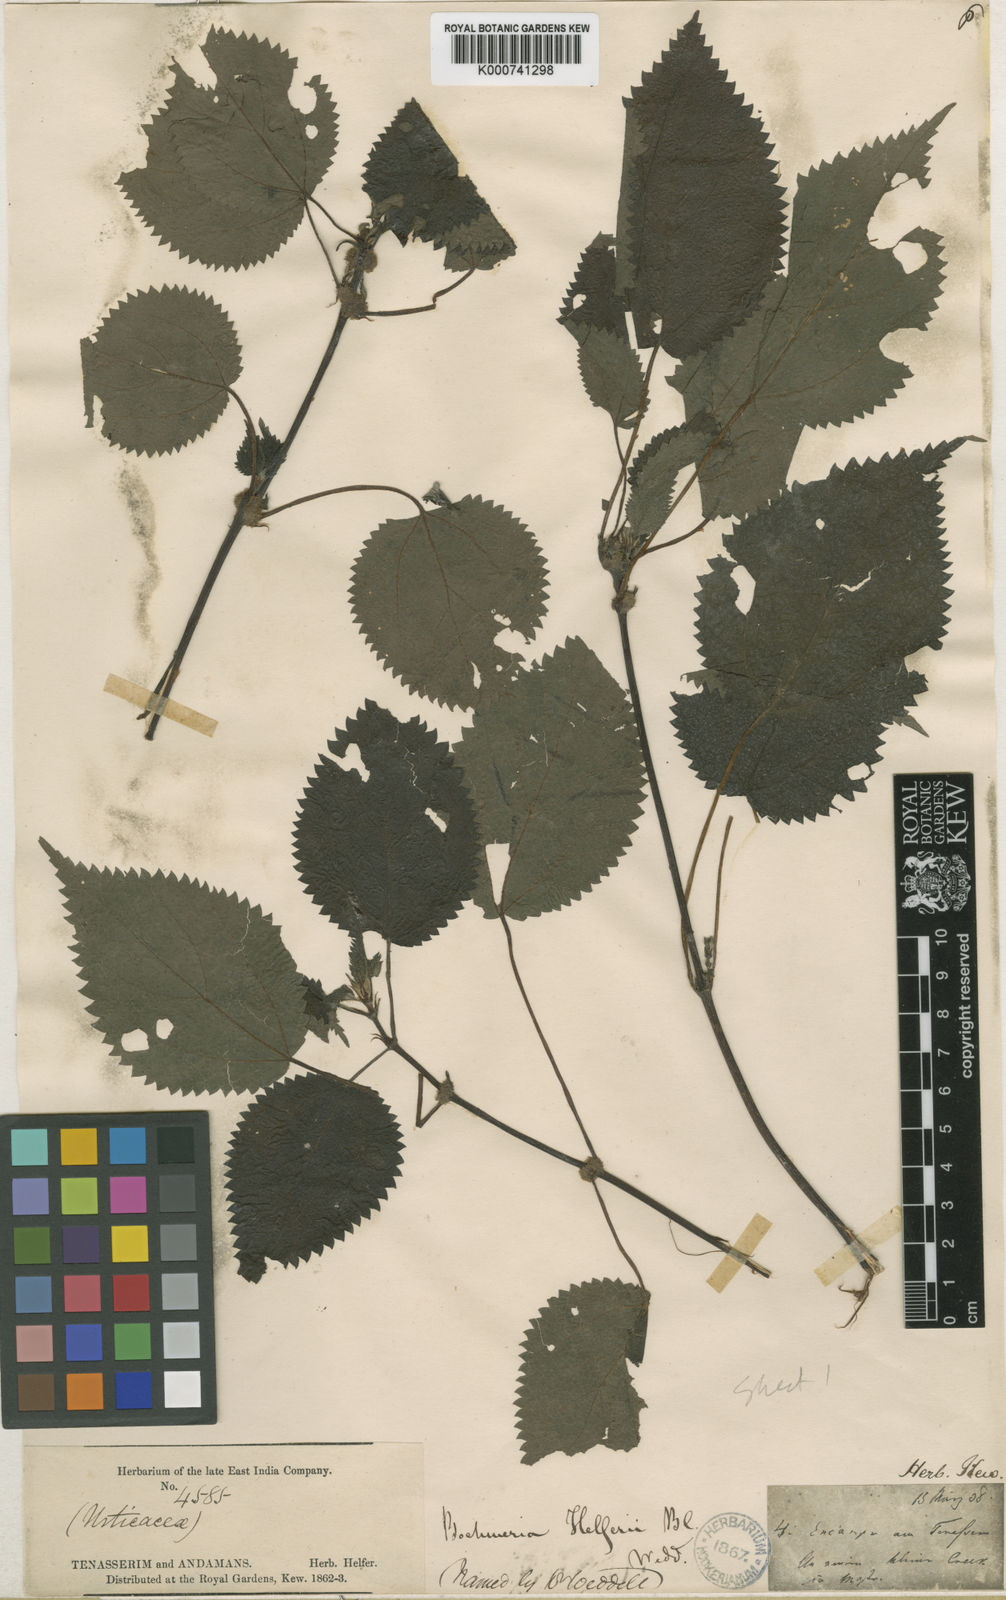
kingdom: Plantae
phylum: Tracheophyta
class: Magnoliopsida
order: Rosales
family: Urticaceae
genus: Boehmeria
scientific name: Boehmeria helferi
